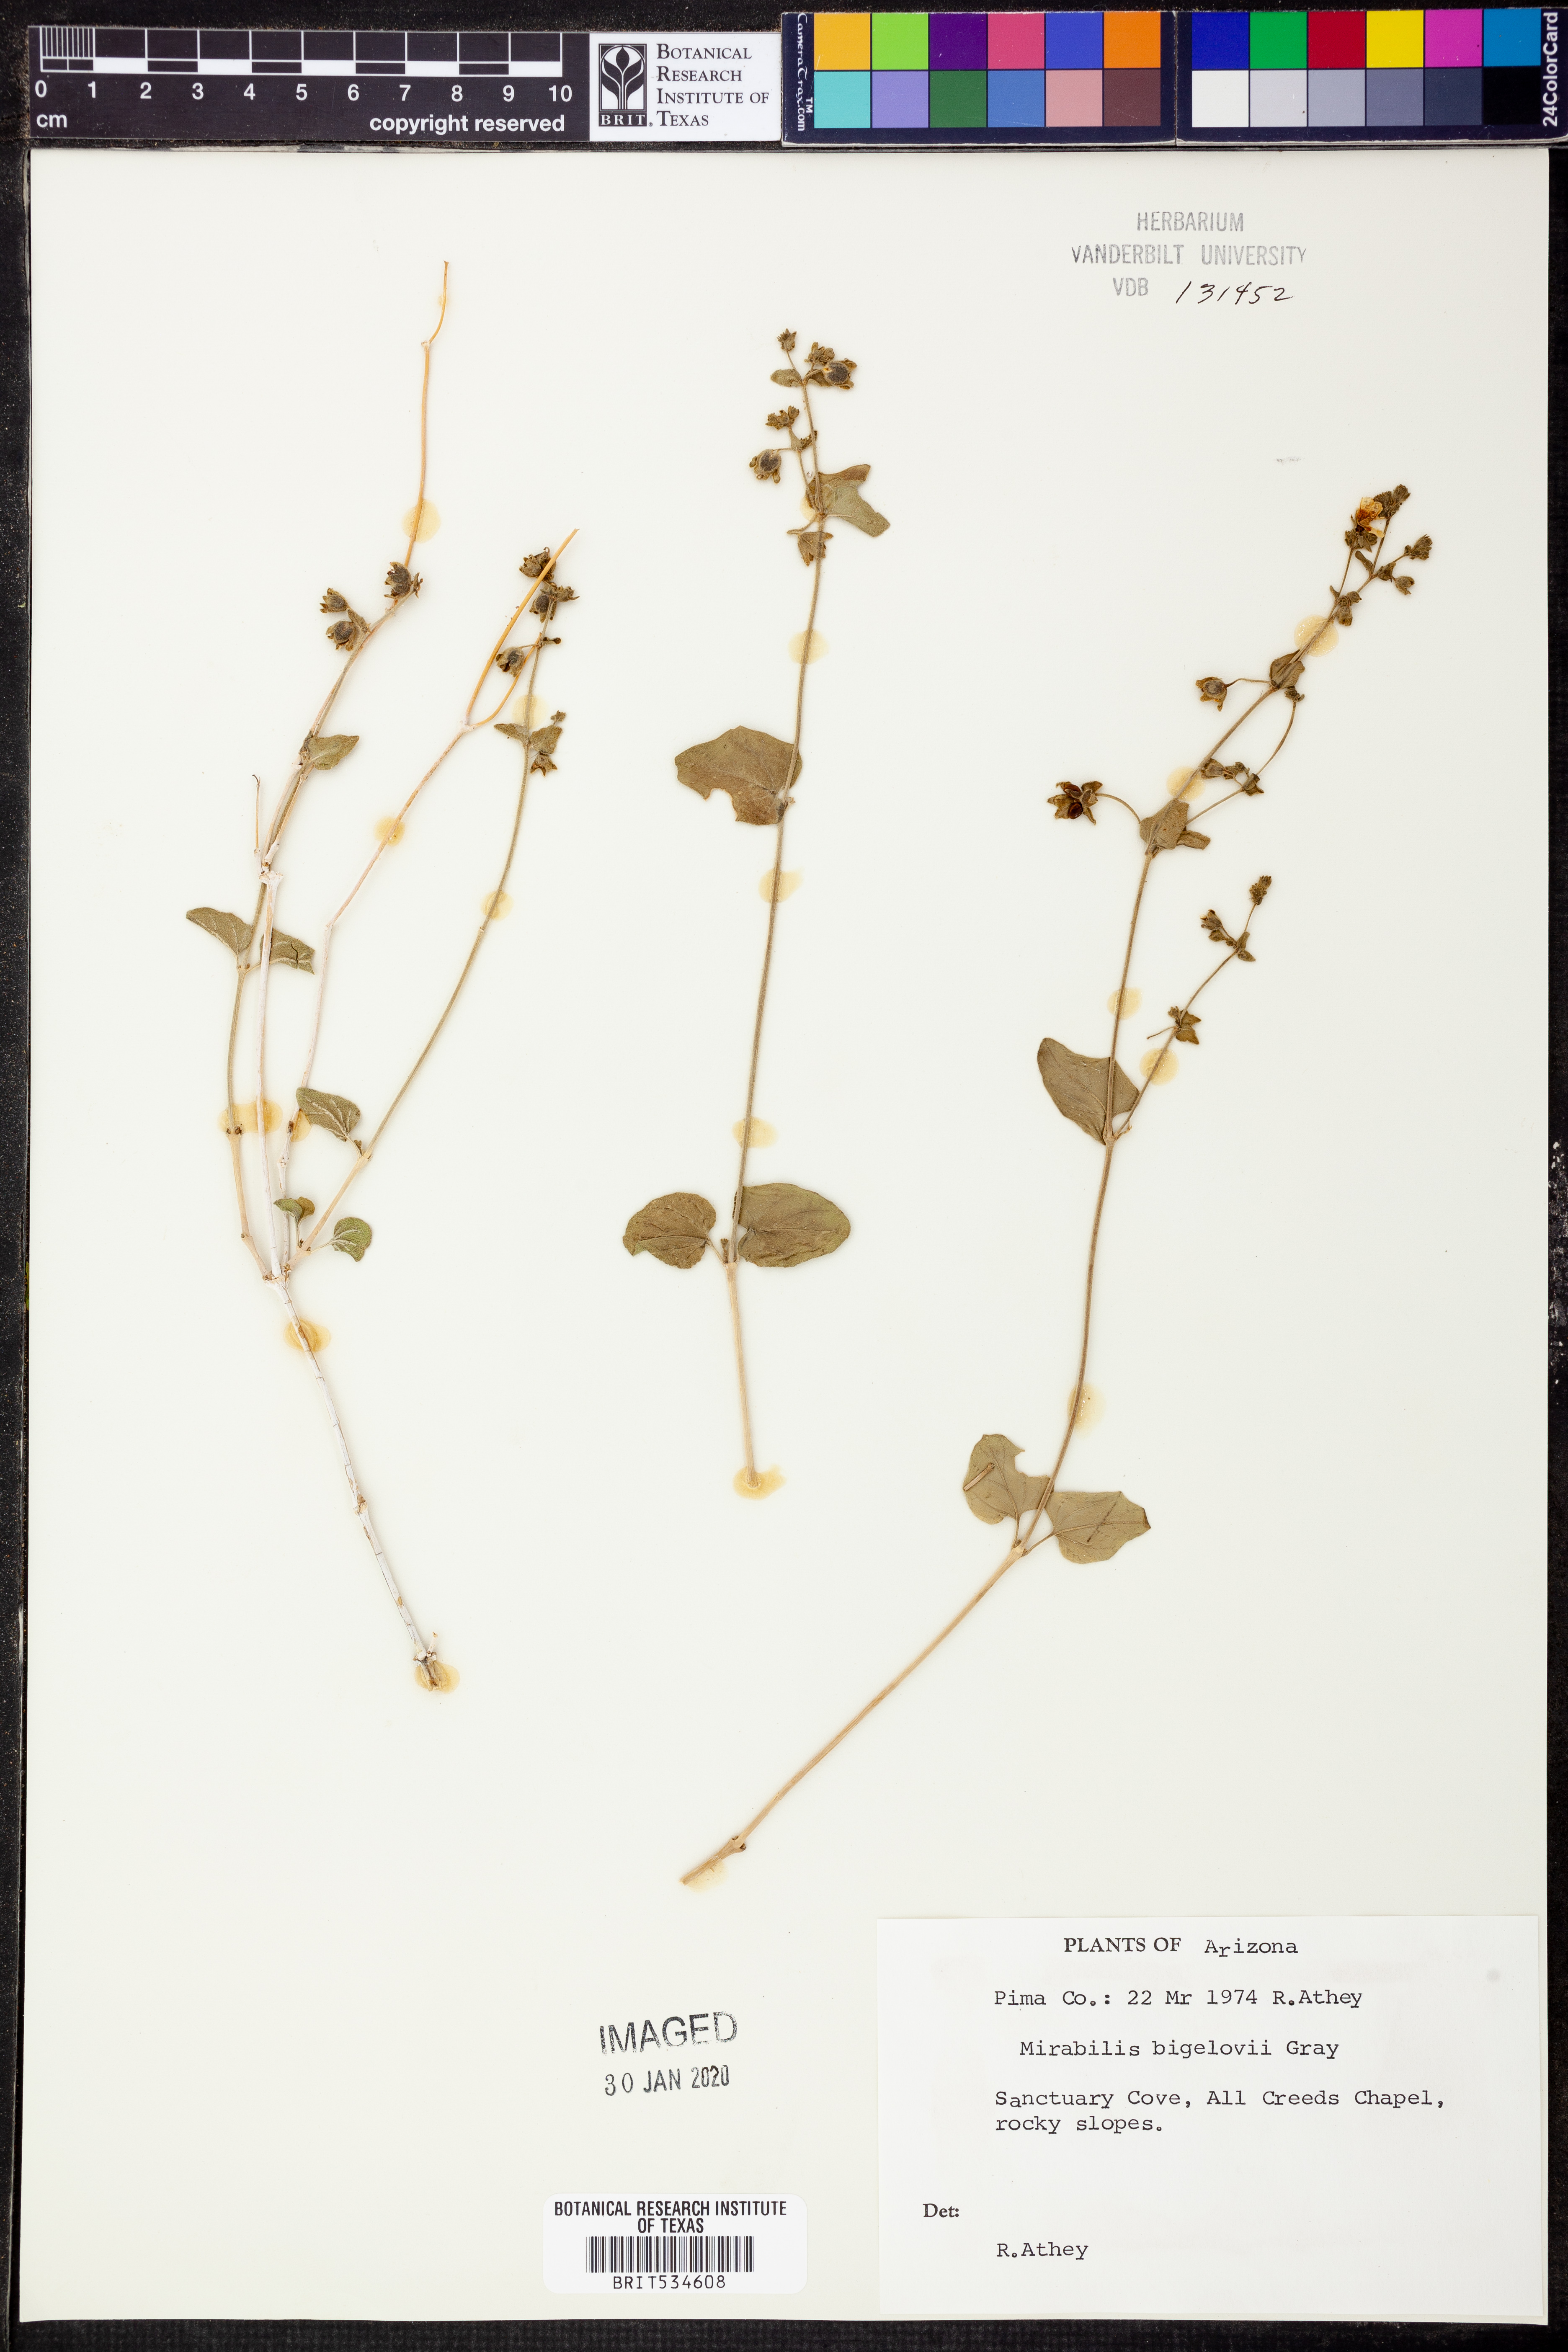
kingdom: Plantae
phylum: Tracheophyta
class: Magnoliopsida
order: Caryophyllales
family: Nyctaginaceae
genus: Mirabilis
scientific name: Mirabilis laevis
